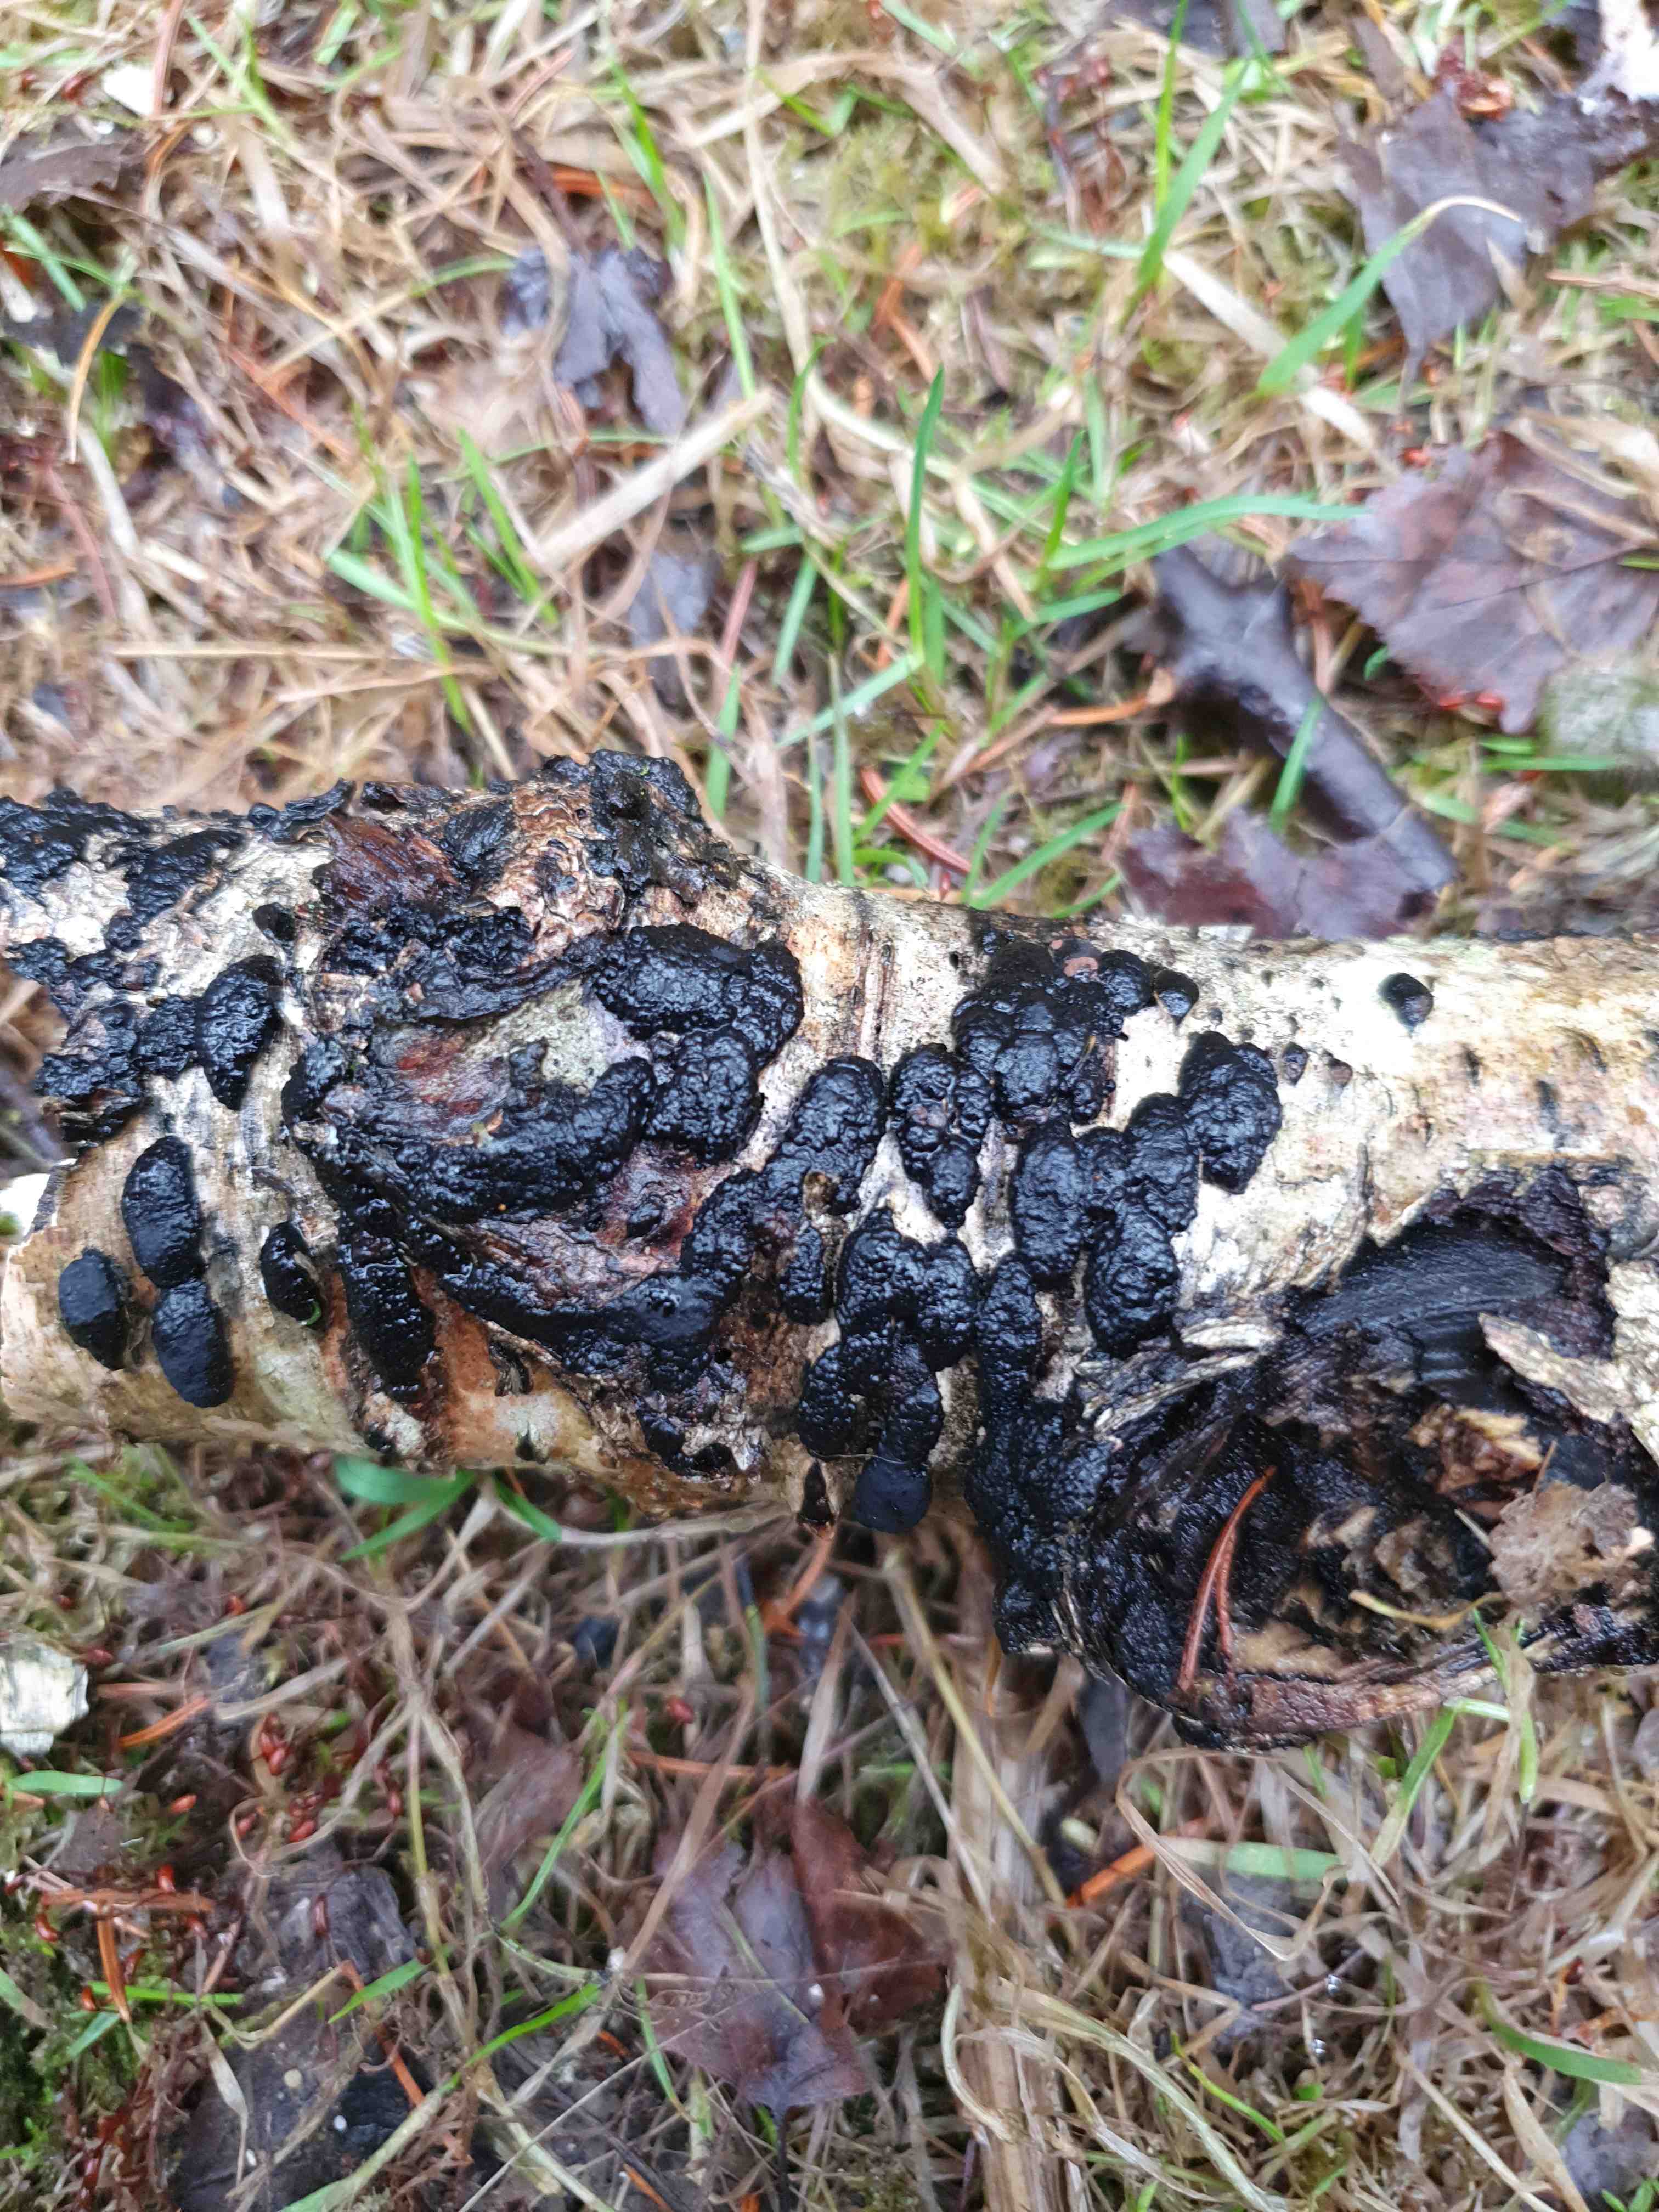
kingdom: Fungi
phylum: Ascomycota
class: Sordariomycetes
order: Xylariales
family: Hypoxylaceae
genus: Jackrogersella
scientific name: Jackrogersella multiformis
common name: foranderlig kulbær
